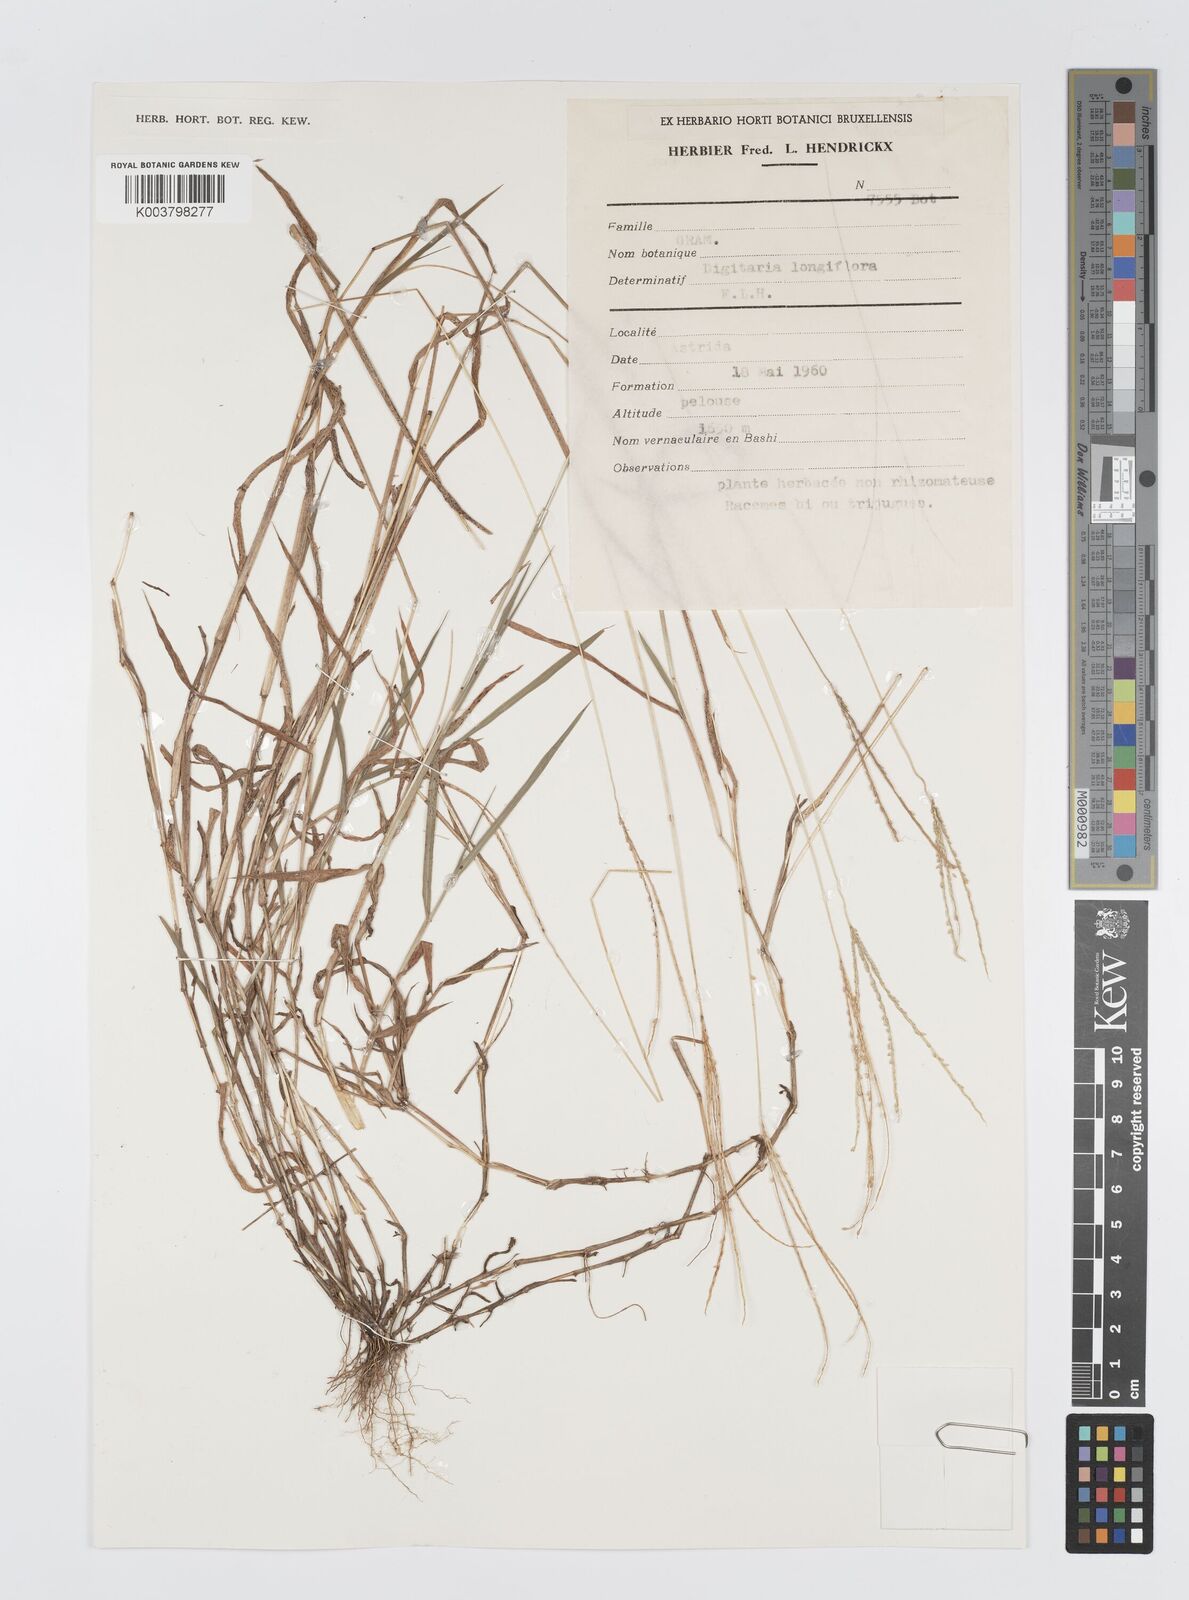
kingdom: Plantae
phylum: Tracheophyta
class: Liliopsida
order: Poales
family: Poaceae
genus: Digitaria
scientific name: Digitaria longiflora
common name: Wire crabgrass
